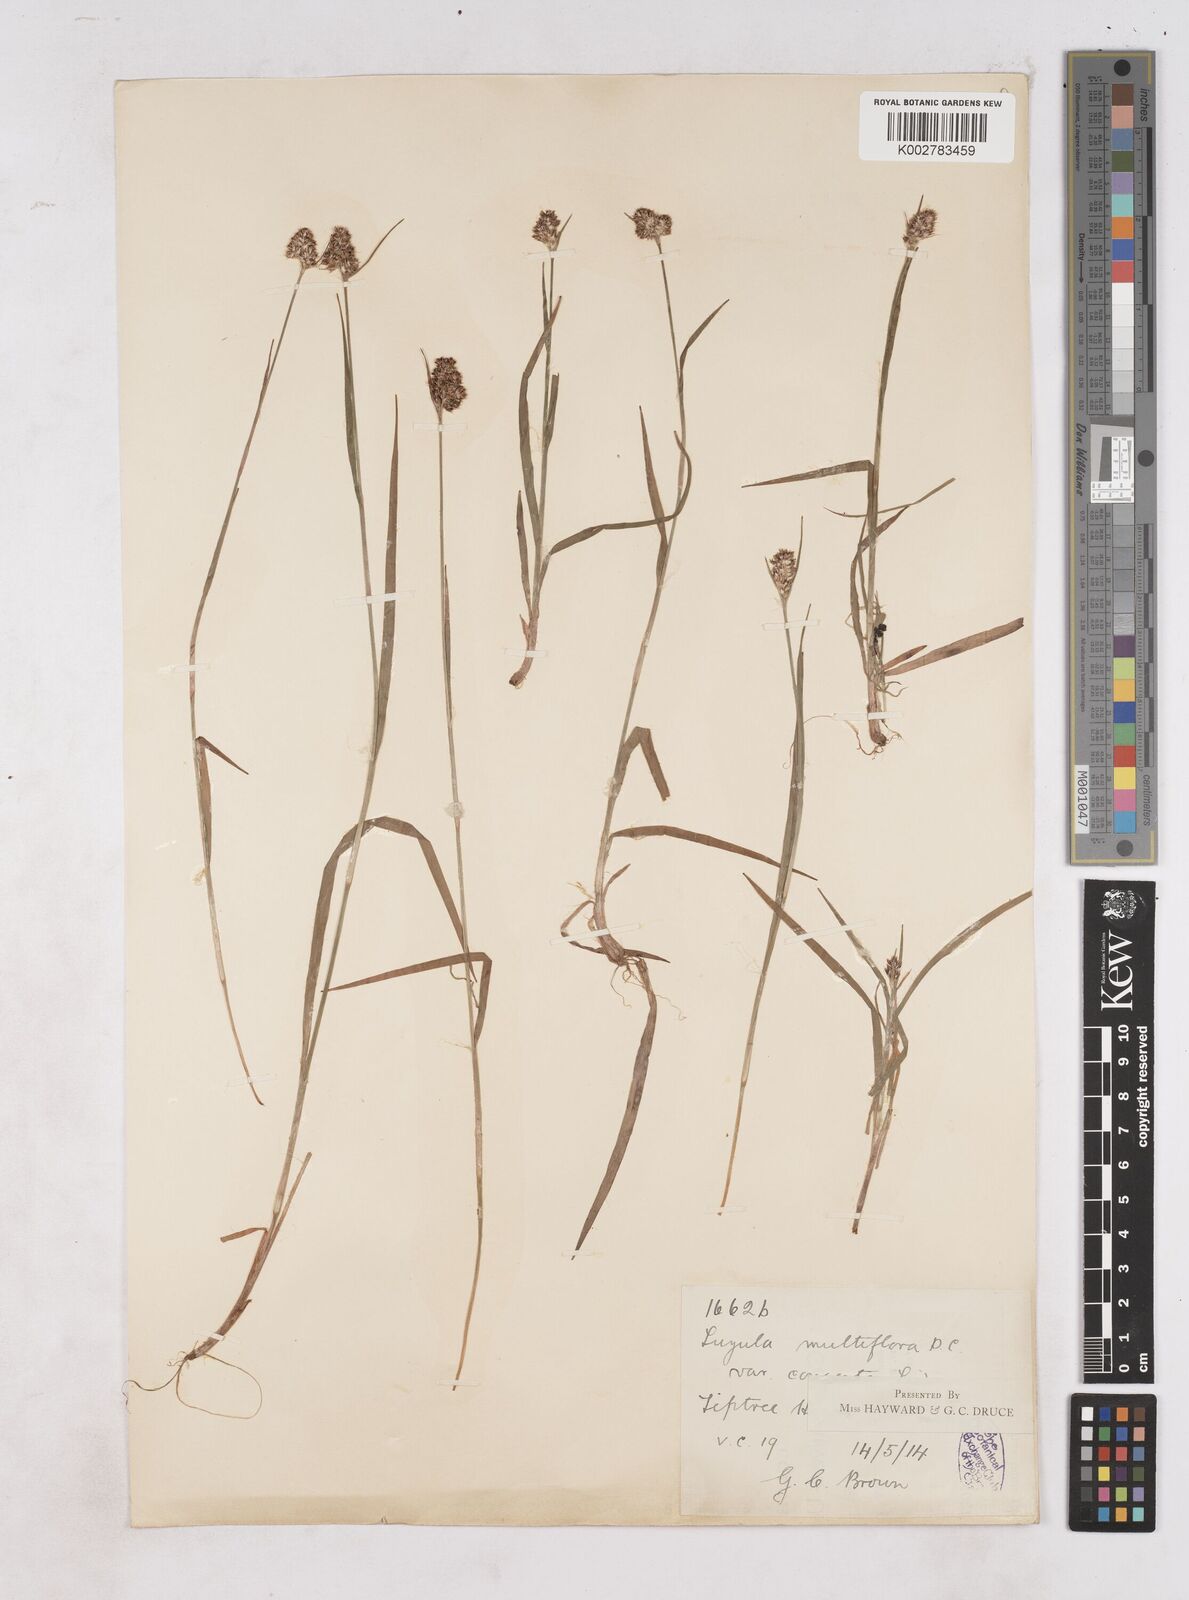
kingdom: Plantae
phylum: Tracheophyta
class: Liliopsida
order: Poales
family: Juncaceae
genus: Luzula
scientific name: Luzula campestris
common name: Field wood-rush
